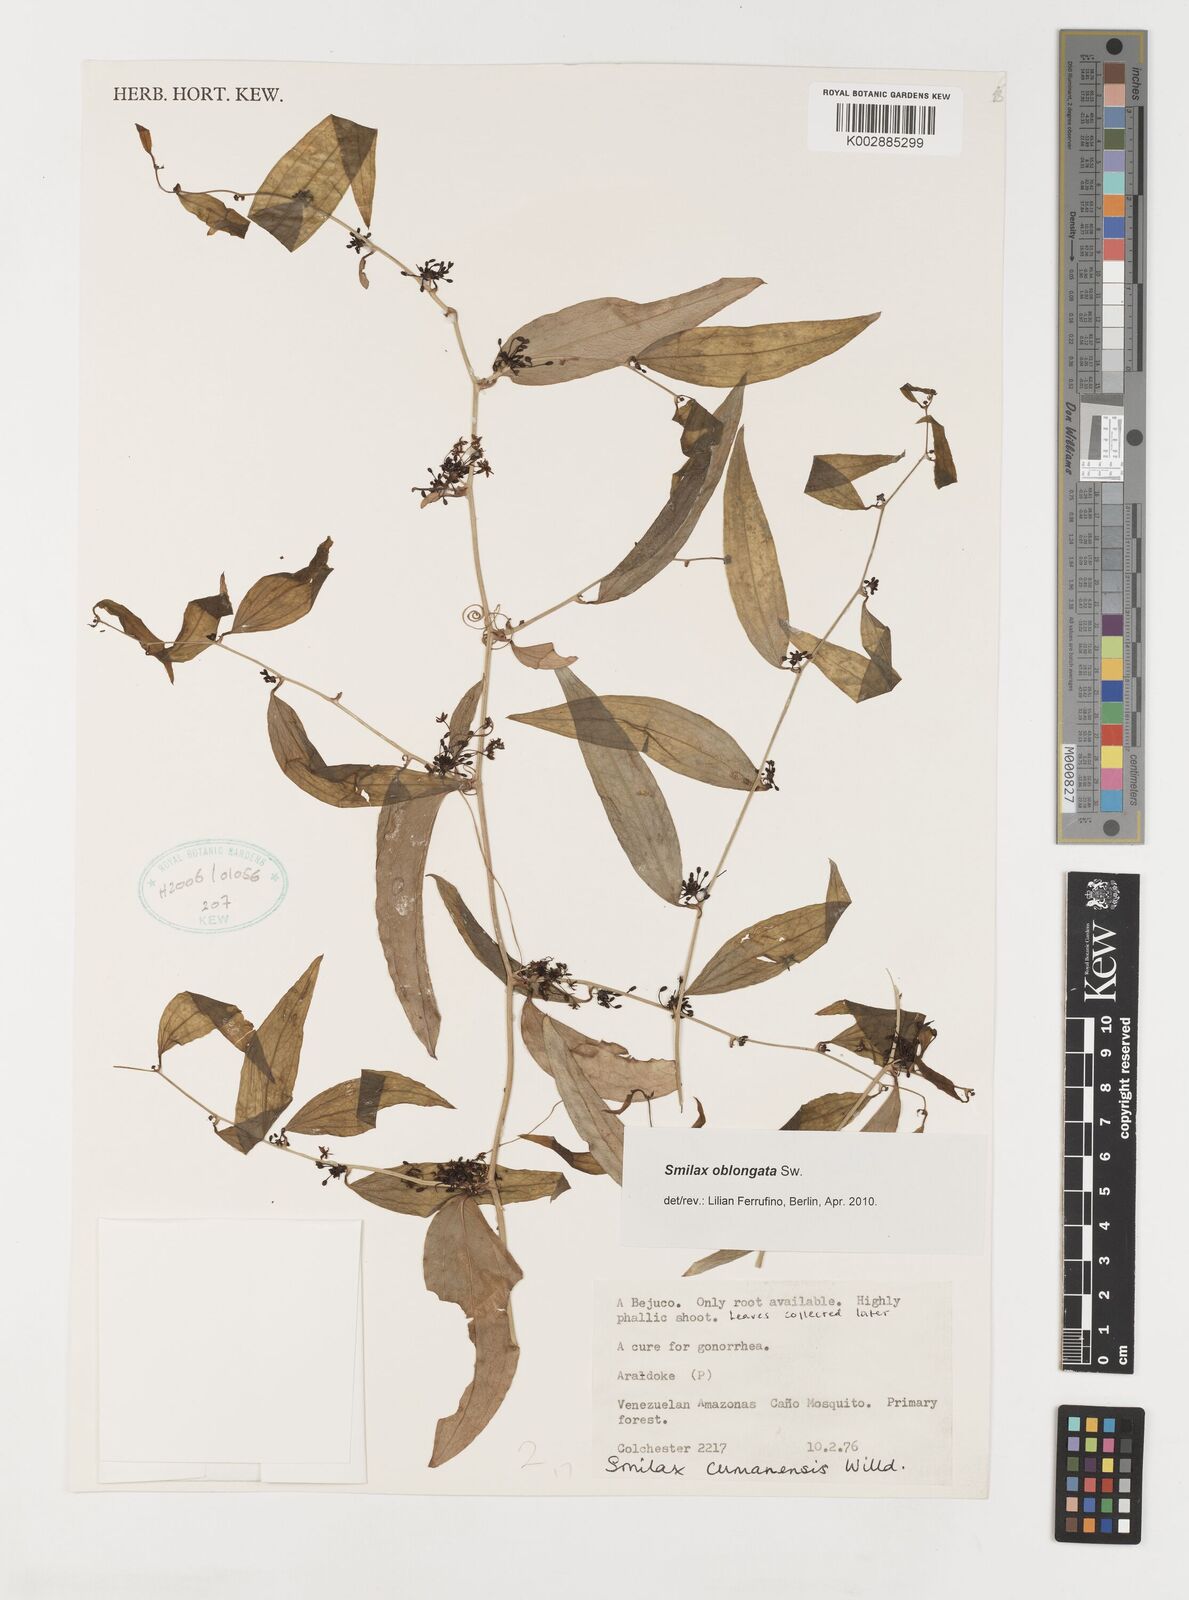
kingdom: Plantae
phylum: Tracheophyta
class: Liliopsida
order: Liliales
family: Smilacaceae
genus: Smilax
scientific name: Smilax oblongata
